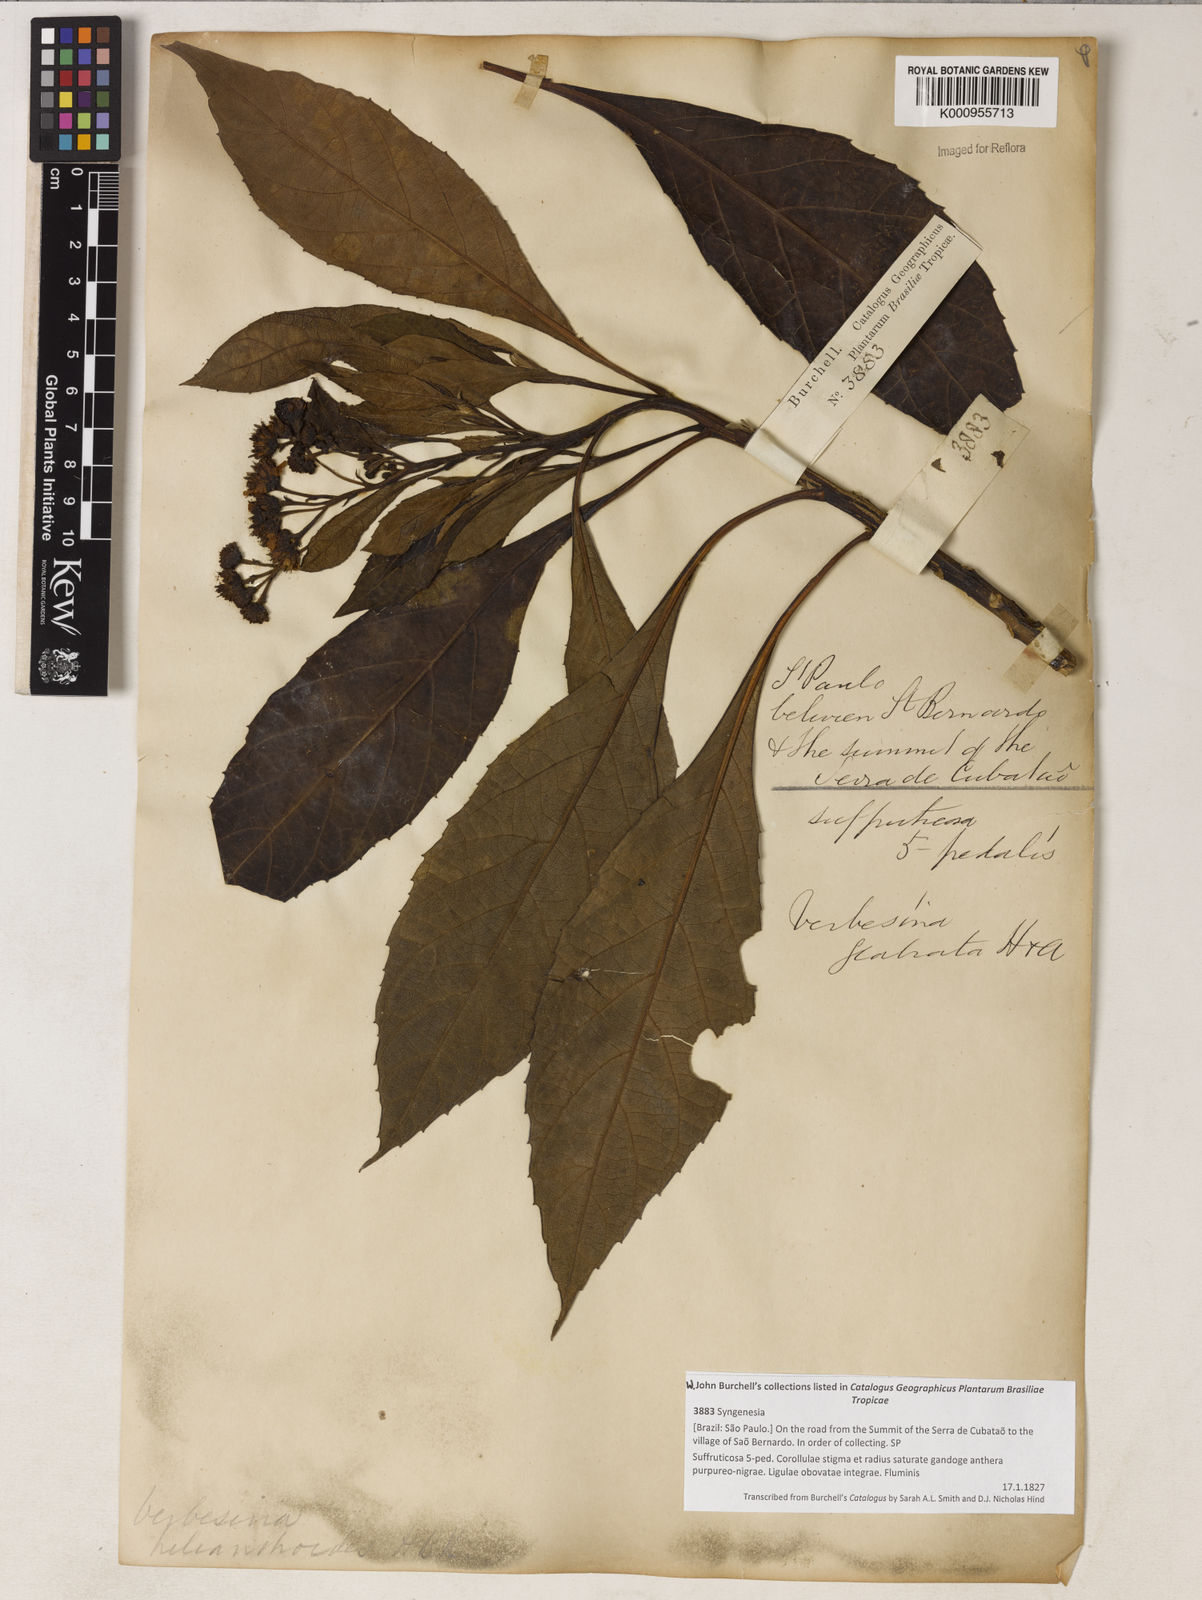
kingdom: Plantae
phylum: Tracheophyta
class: Magnoliopsida
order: Asterales
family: Asteraceae
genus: Verbesina
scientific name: Verbesina glabrata
